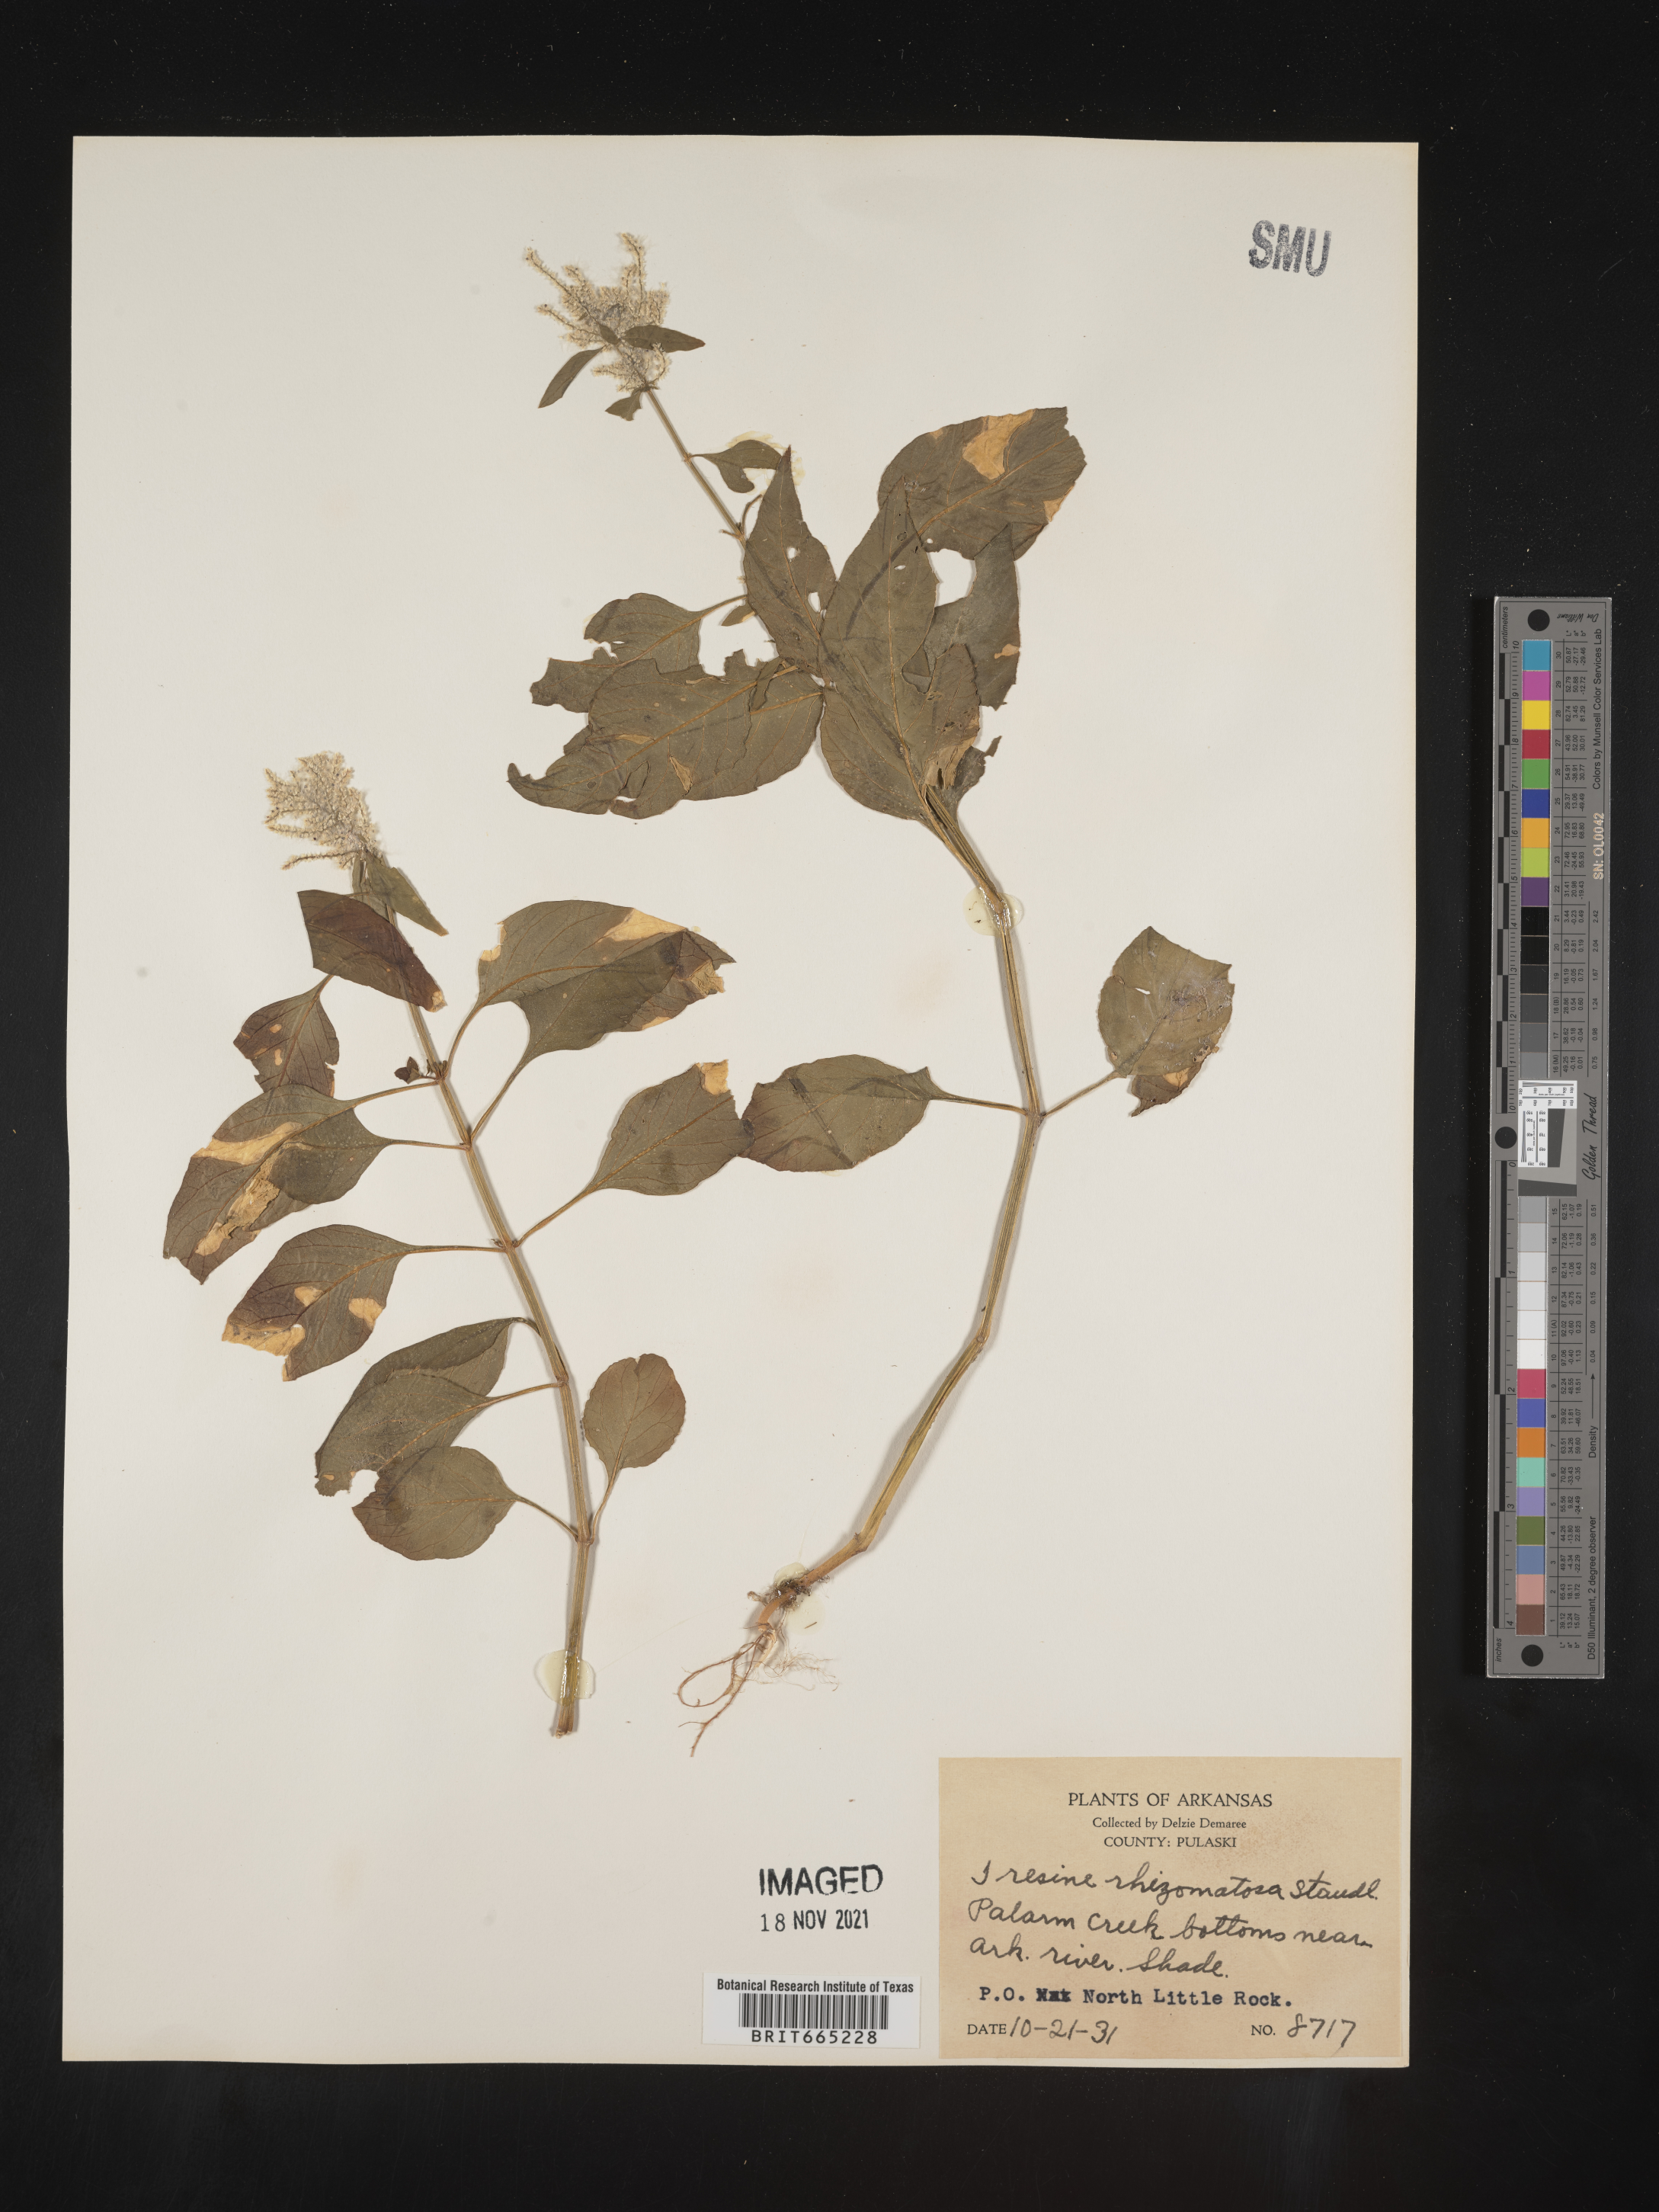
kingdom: Plantae
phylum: Tracheophyta
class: Magnoliopsida
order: Caryophyllales
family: Amaranthaceae
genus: Iresine
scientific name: Iresine rhizomatosa
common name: Juda's-bush
